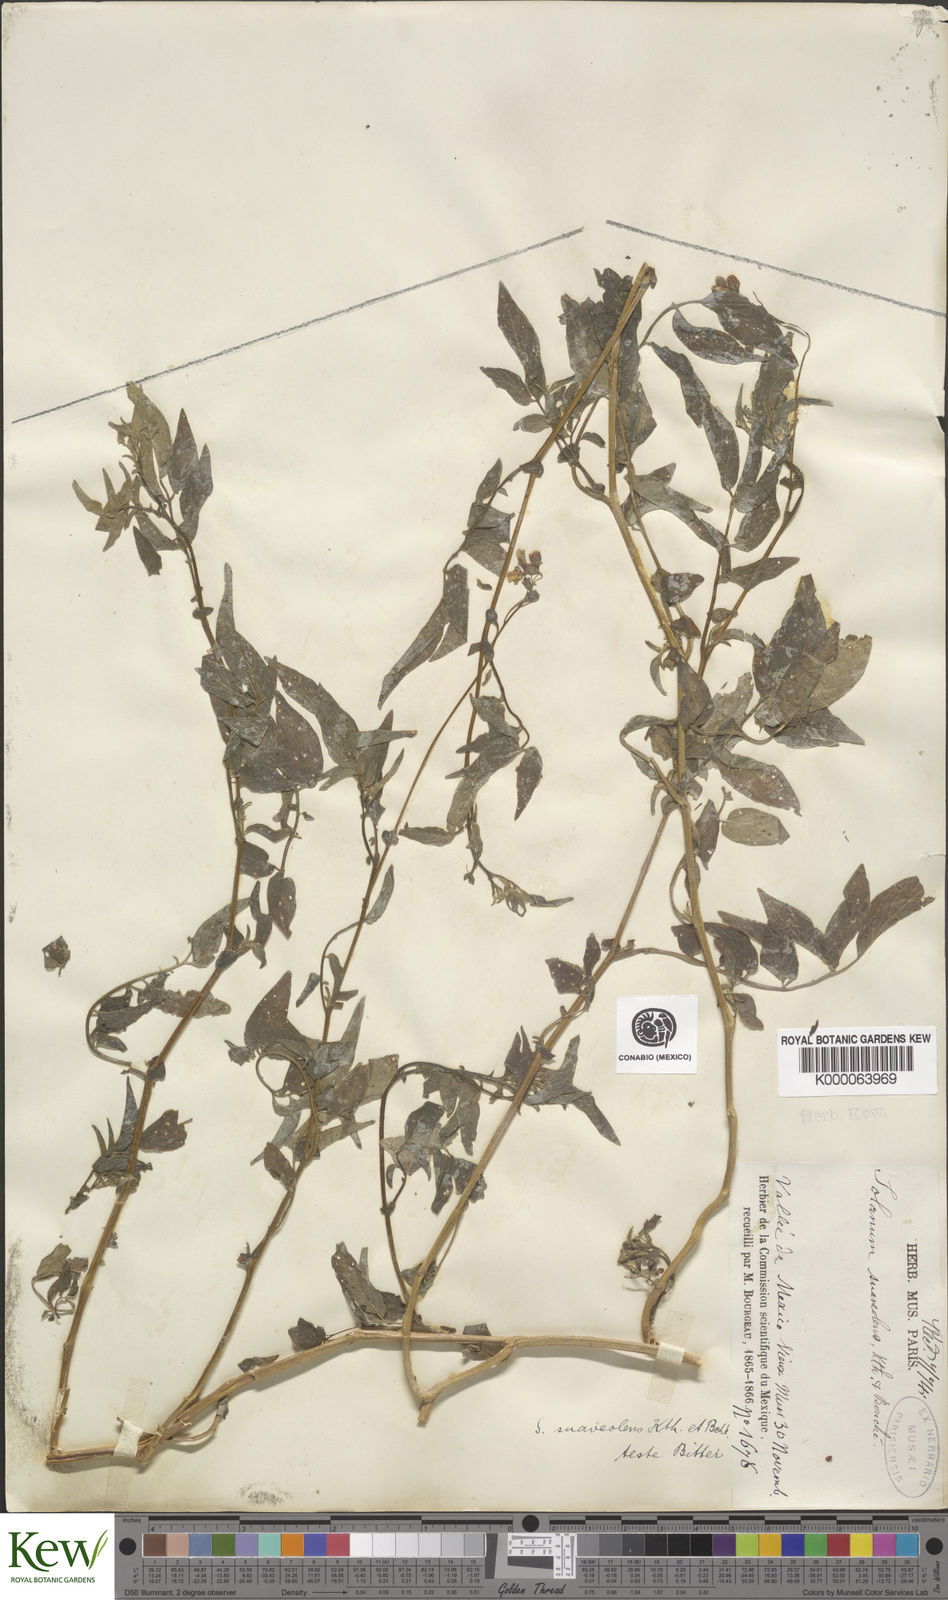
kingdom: Plantae
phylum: Tracheophyta
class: Magnoliopsida
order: Solanales
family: Solanaceae
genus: Solanum
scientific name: Solanum
